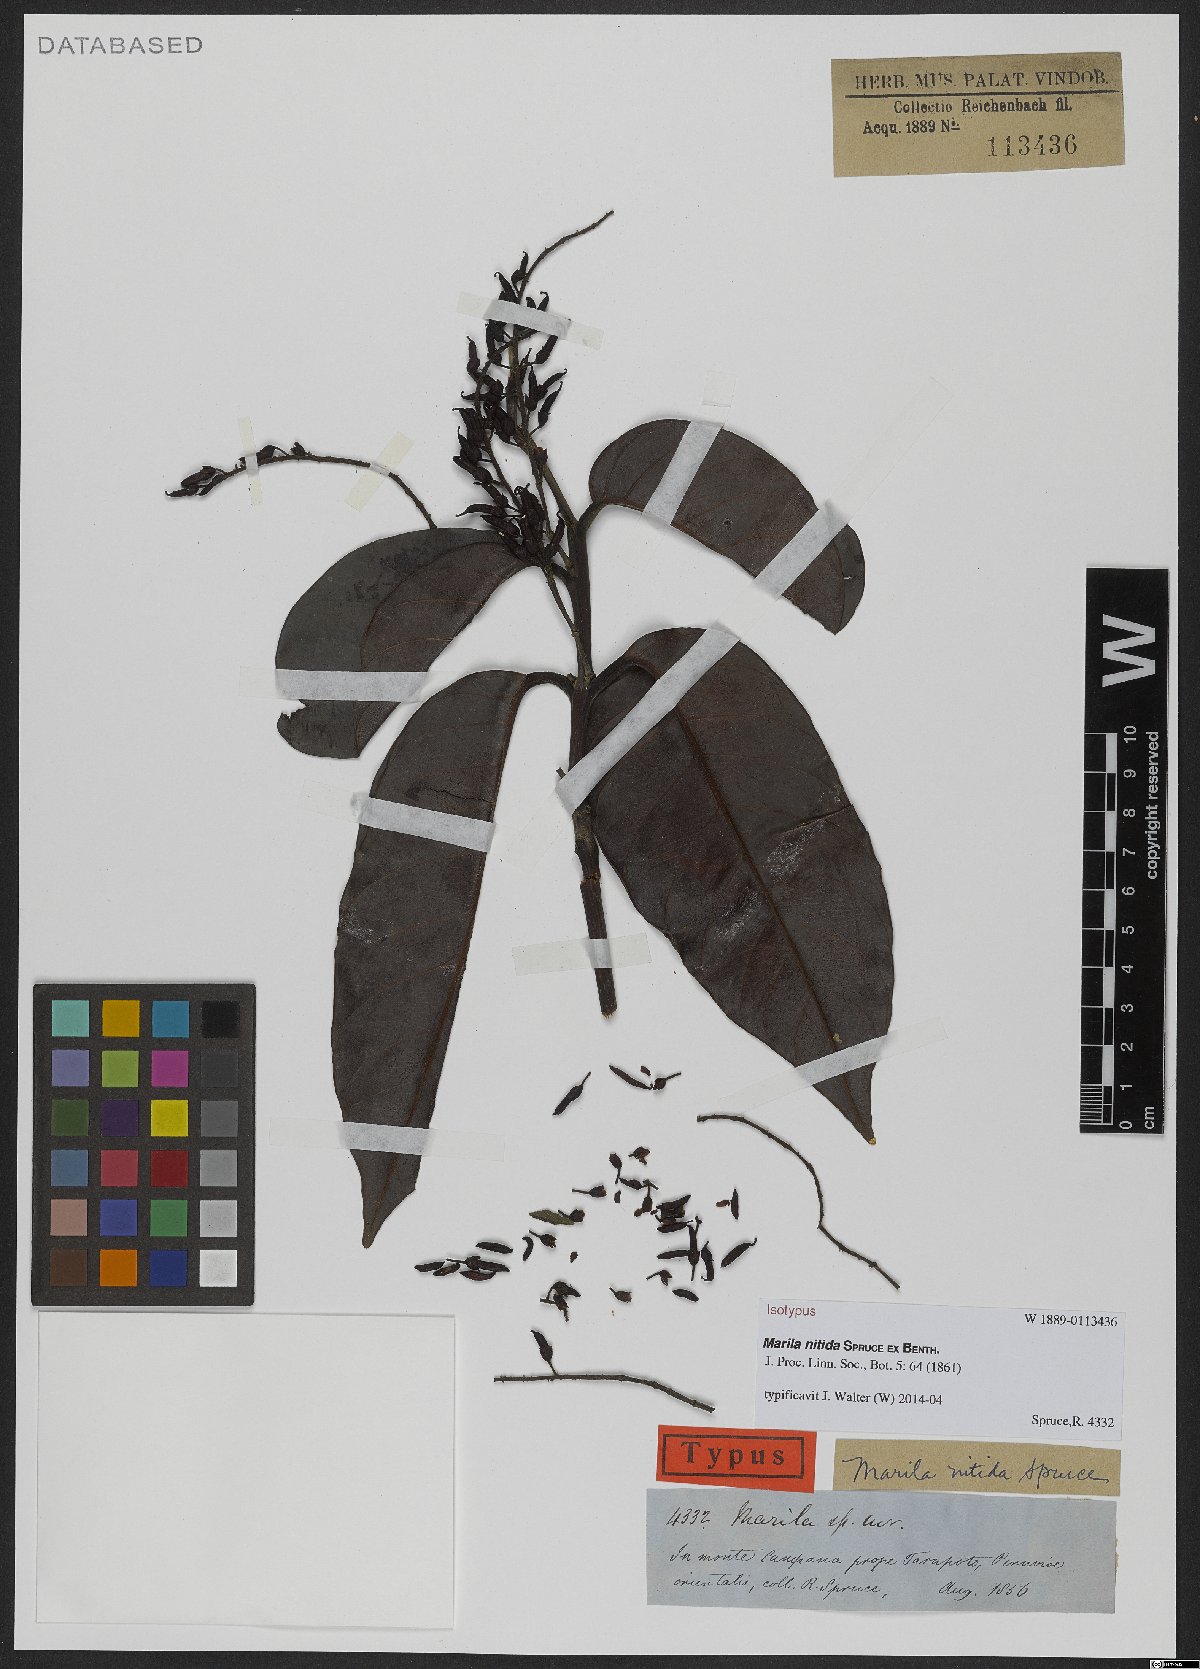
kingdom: Plantae
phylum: Tracheophyta
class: Magnoliopsida
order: Malpighiales
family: Calophyllaceae
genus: Marila
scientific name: Marila nitida
